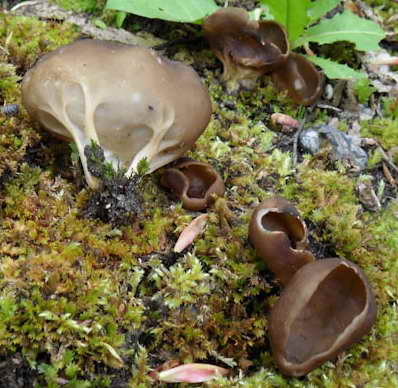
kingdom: Fungi
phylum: Ascomycota
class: Pezizomycetes
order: Pezizales
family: Helvellaceae
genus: Helvella
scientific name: Helvella acetabulum
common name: pokal-foldhat
